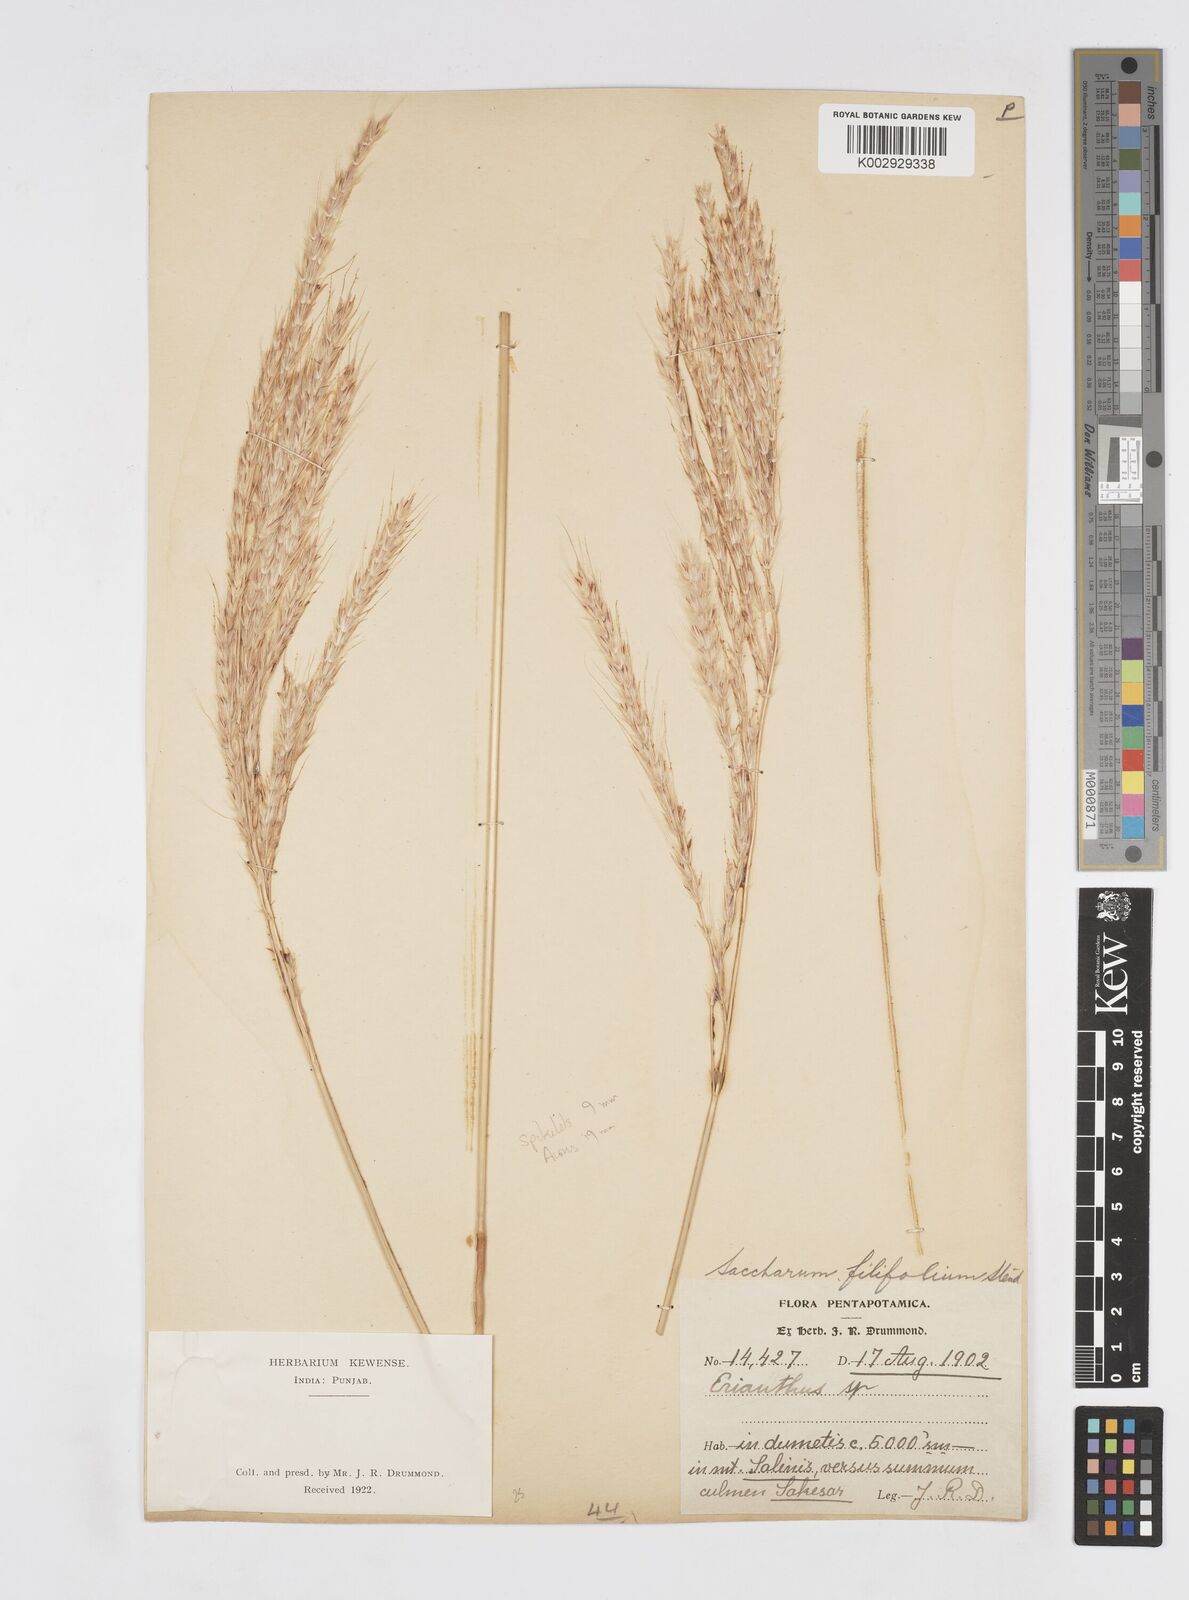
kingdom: Plantae
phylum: Tracheophyta
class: Liliopsida
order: Poales
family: Poaceae
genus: Saccharum
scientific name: Saccharum filifolium
